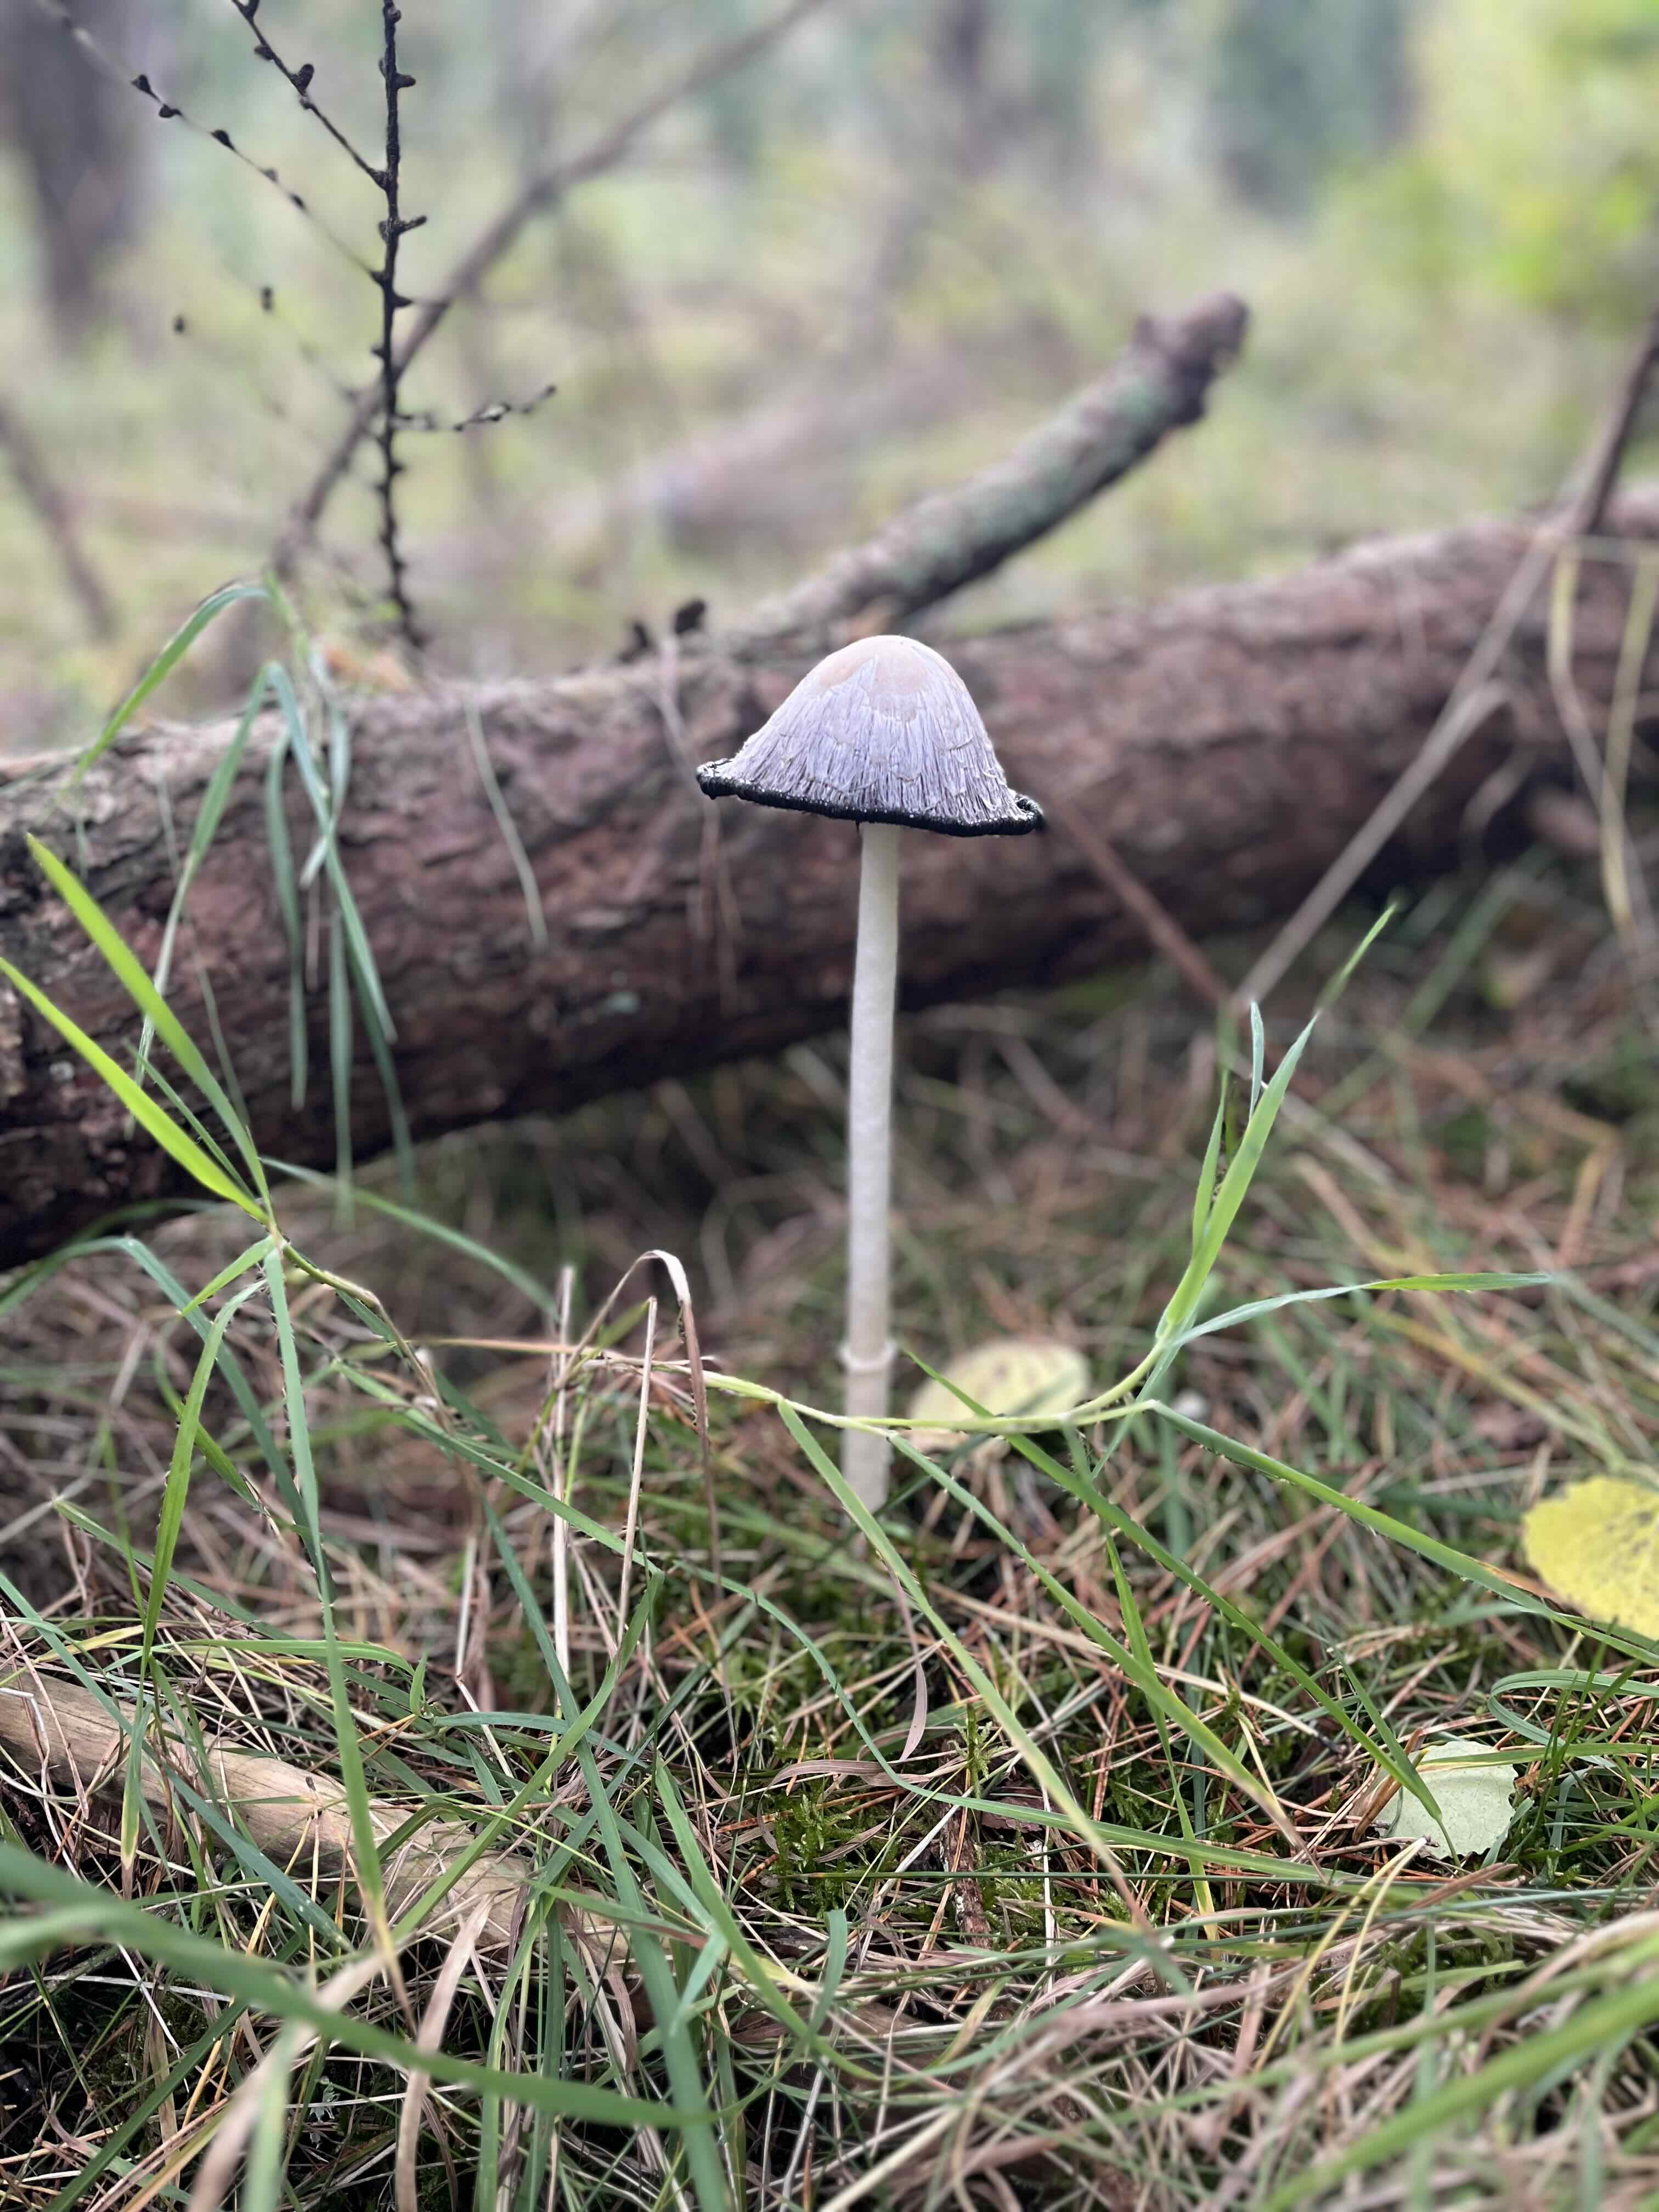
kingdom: Fungi
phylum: Basidiomycota
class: Agaricomycetes
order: Agaricales
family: Agaricaceae
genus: Coprinus
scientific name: Coprinus comatus
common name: stor parykhat
